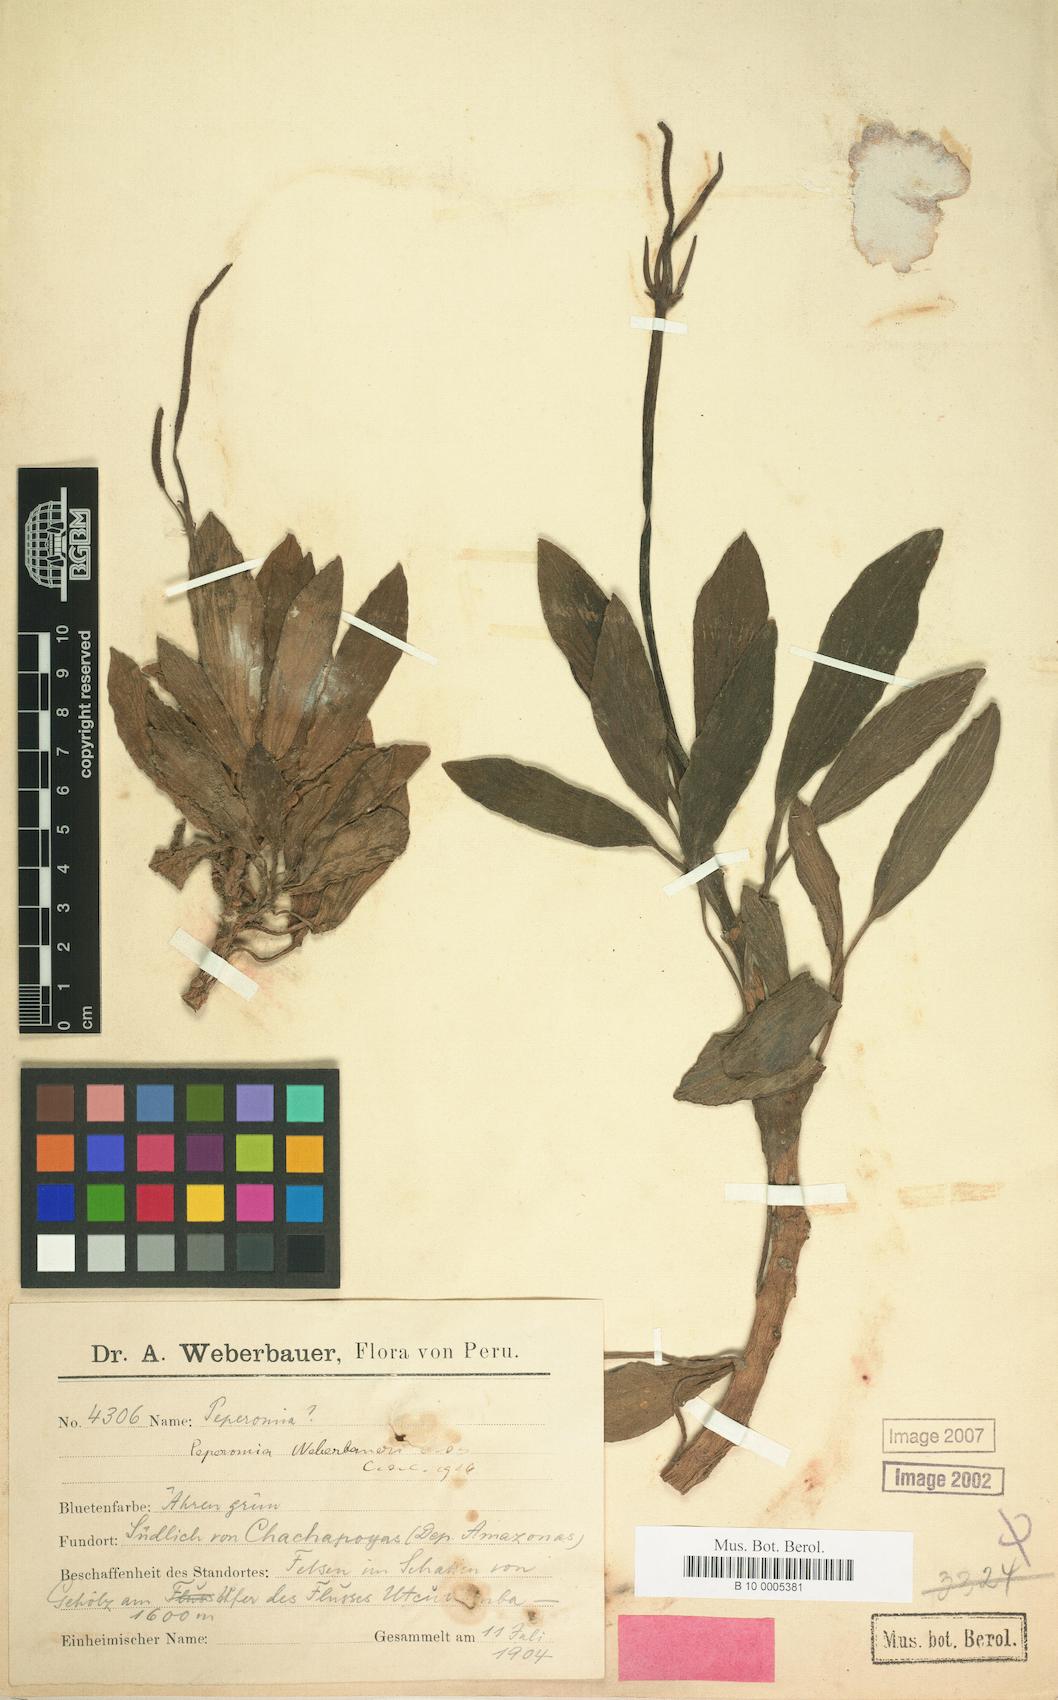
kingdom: Plantae
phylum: Tracheophyta
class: Magnoliopsida
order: Piperales
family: Piperaceae
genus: Peperomia
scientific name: Peperomia weberbaueri
